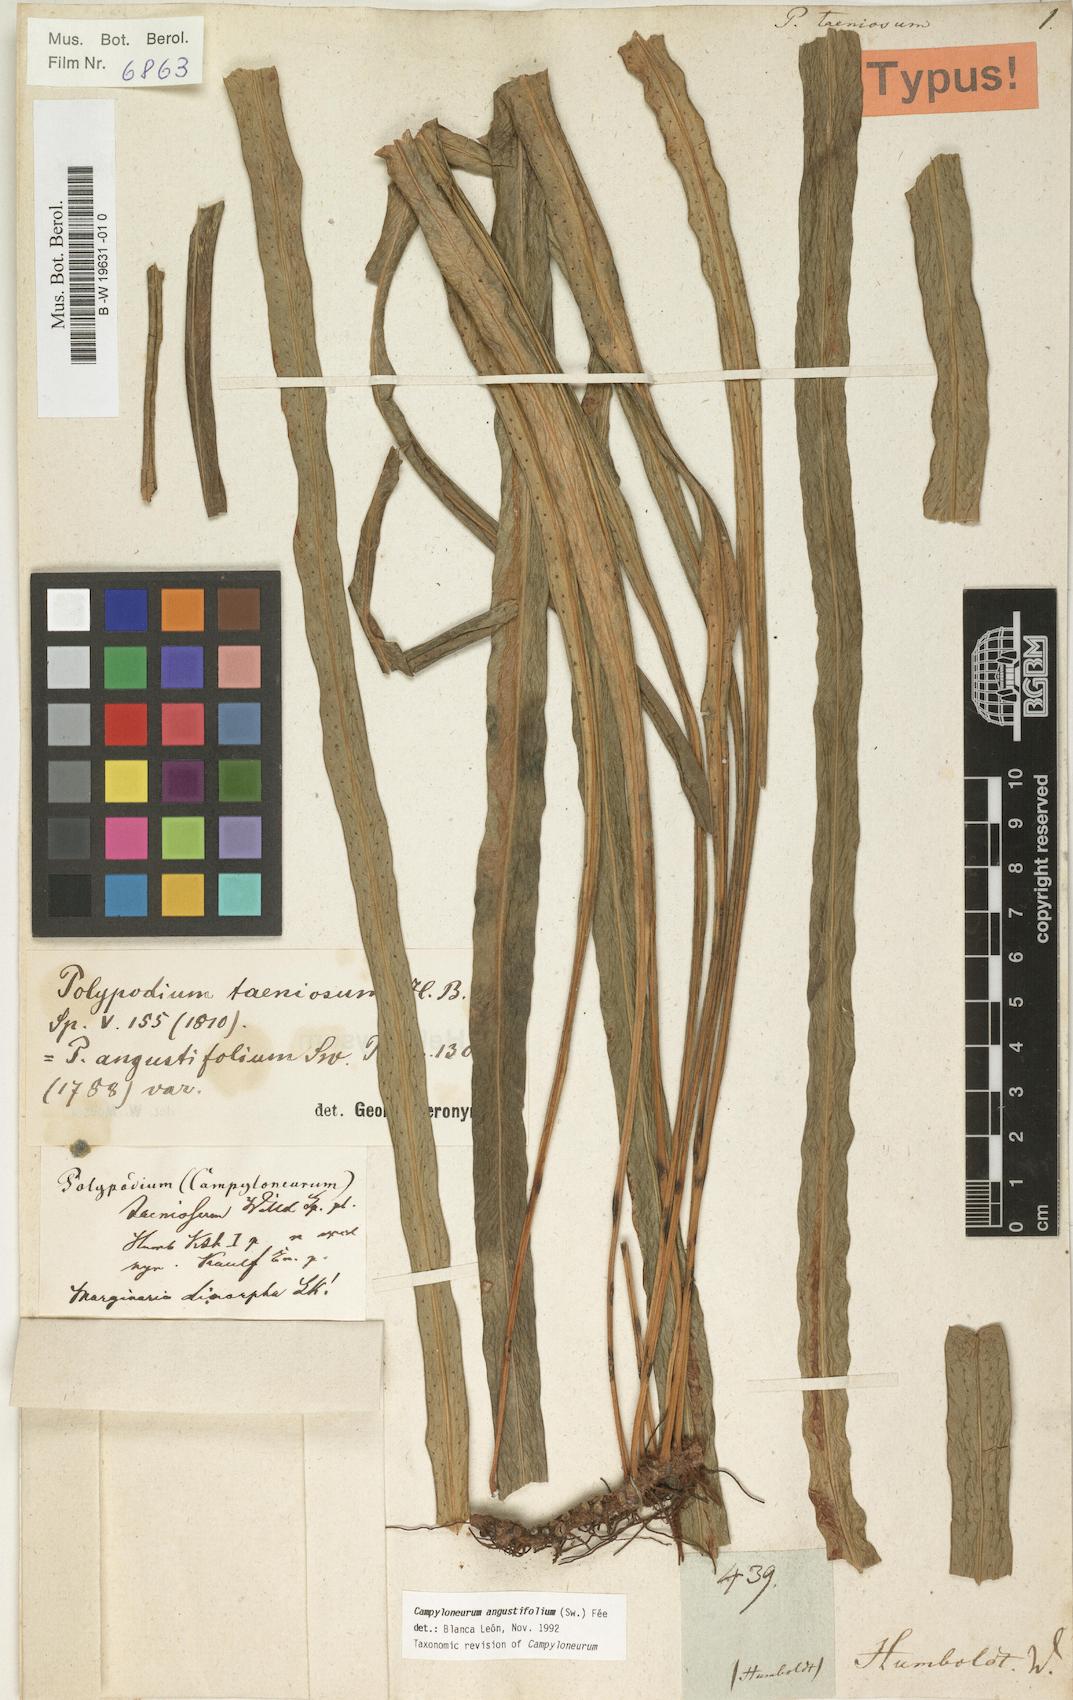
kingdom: Plantae
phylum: Tracheophyta
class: Polypodiopsida
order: Polypodiales
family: Polypodiaceae
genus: Campyloneurum
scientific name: Campyloneurum angustifolium
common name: Narrow-leaf strap fern
